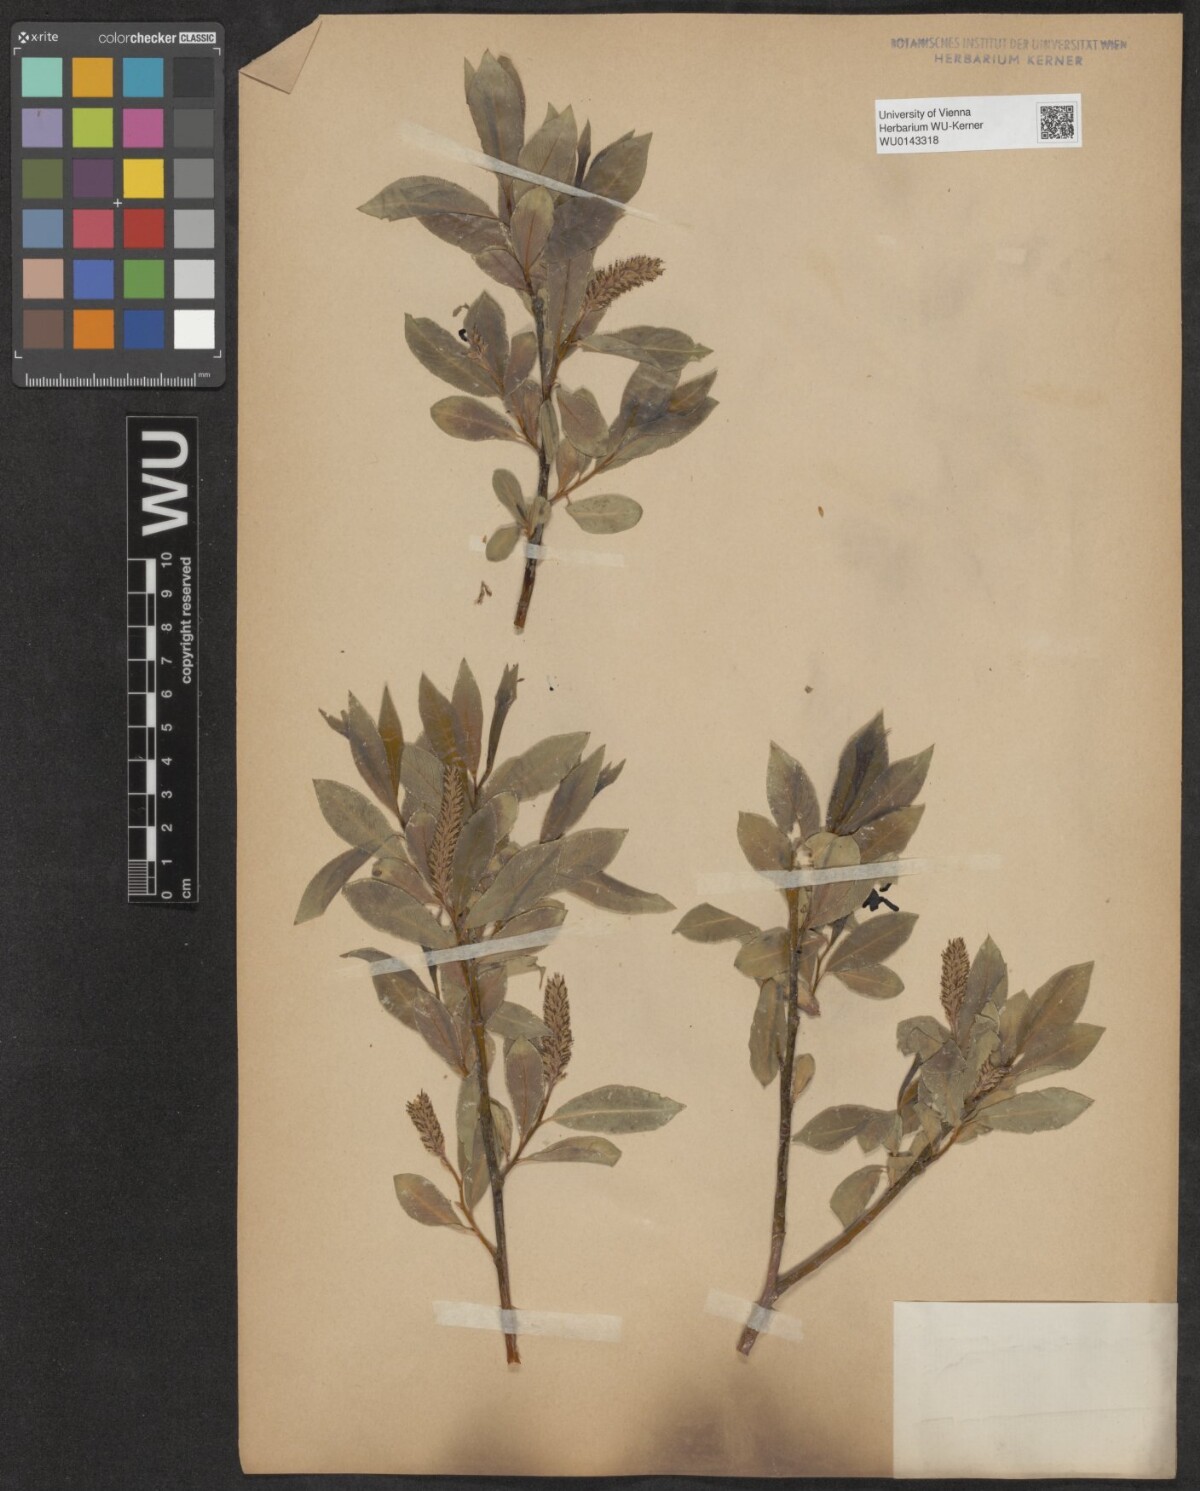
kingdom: Plantae
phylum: Tracheophyta
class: Magnoliopsida
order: Malpighiales
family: Salicaceae
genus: Salix
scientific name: Salix pentandra
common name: Bay willow
